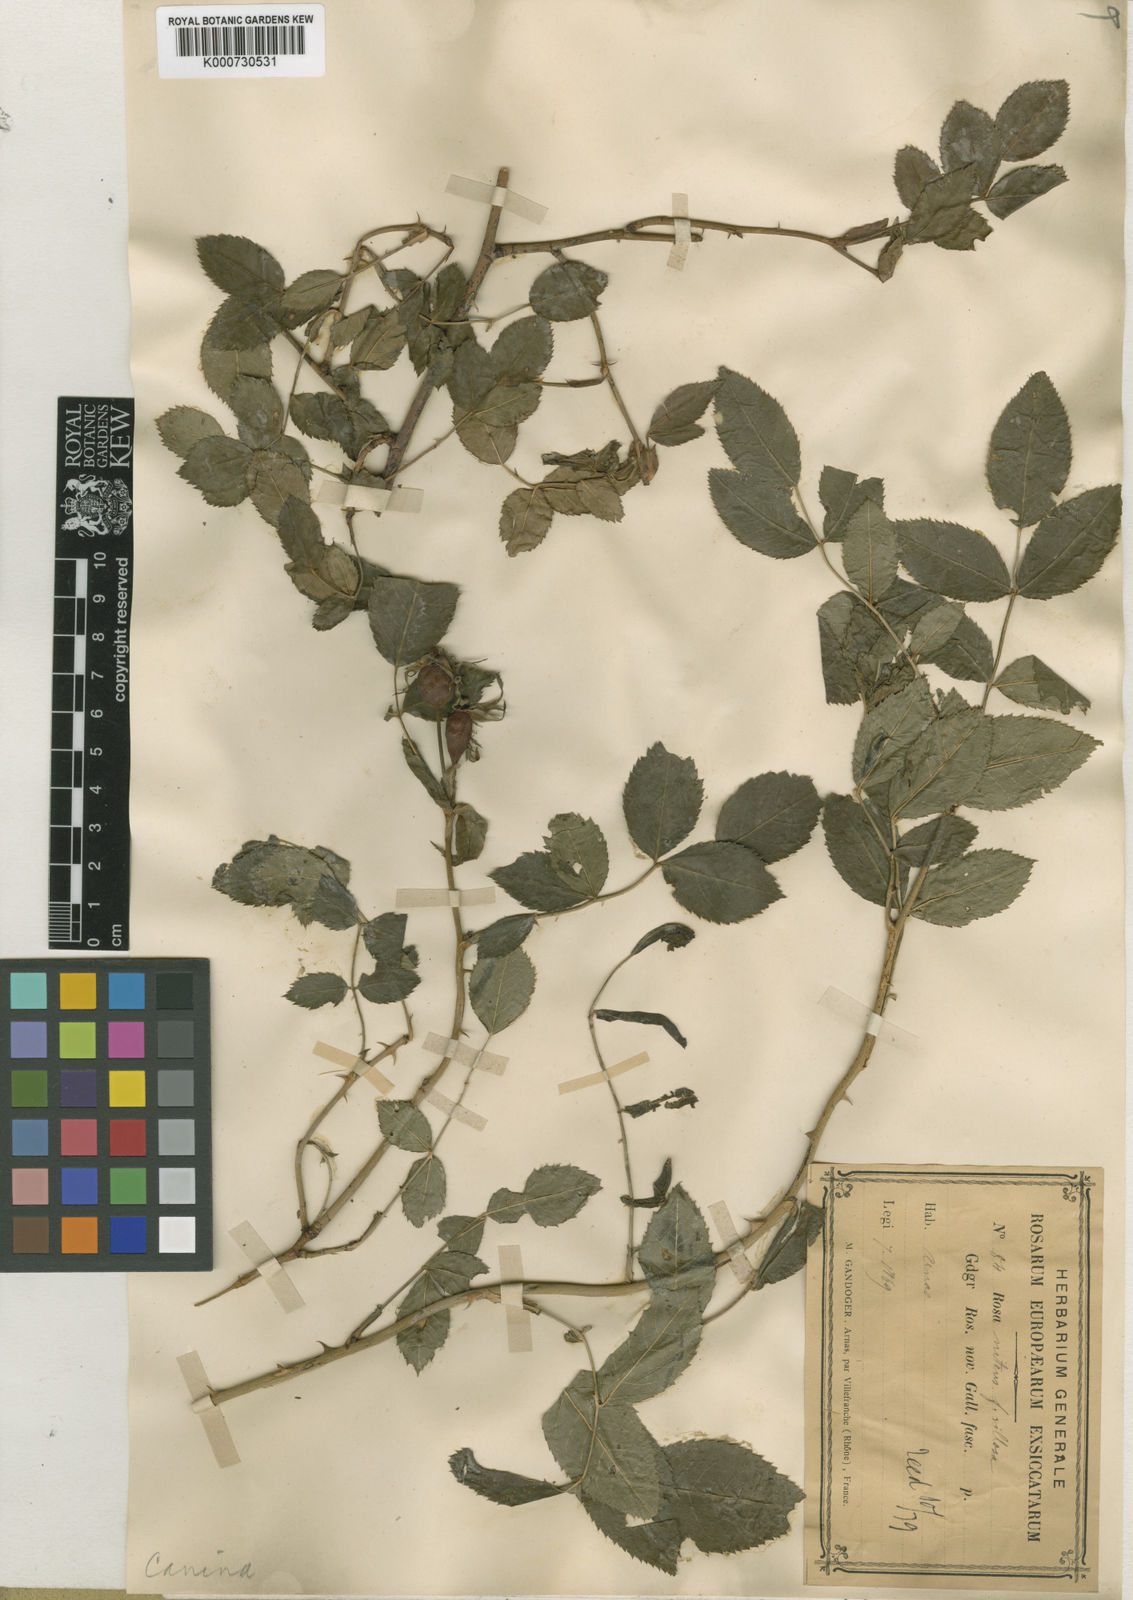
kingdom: Plantae
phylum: Tracheophyta
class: Magnoliopsida
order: Rosales
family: Rosaceae
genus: Rosa
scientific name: Rosa canina
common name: Dog rose
